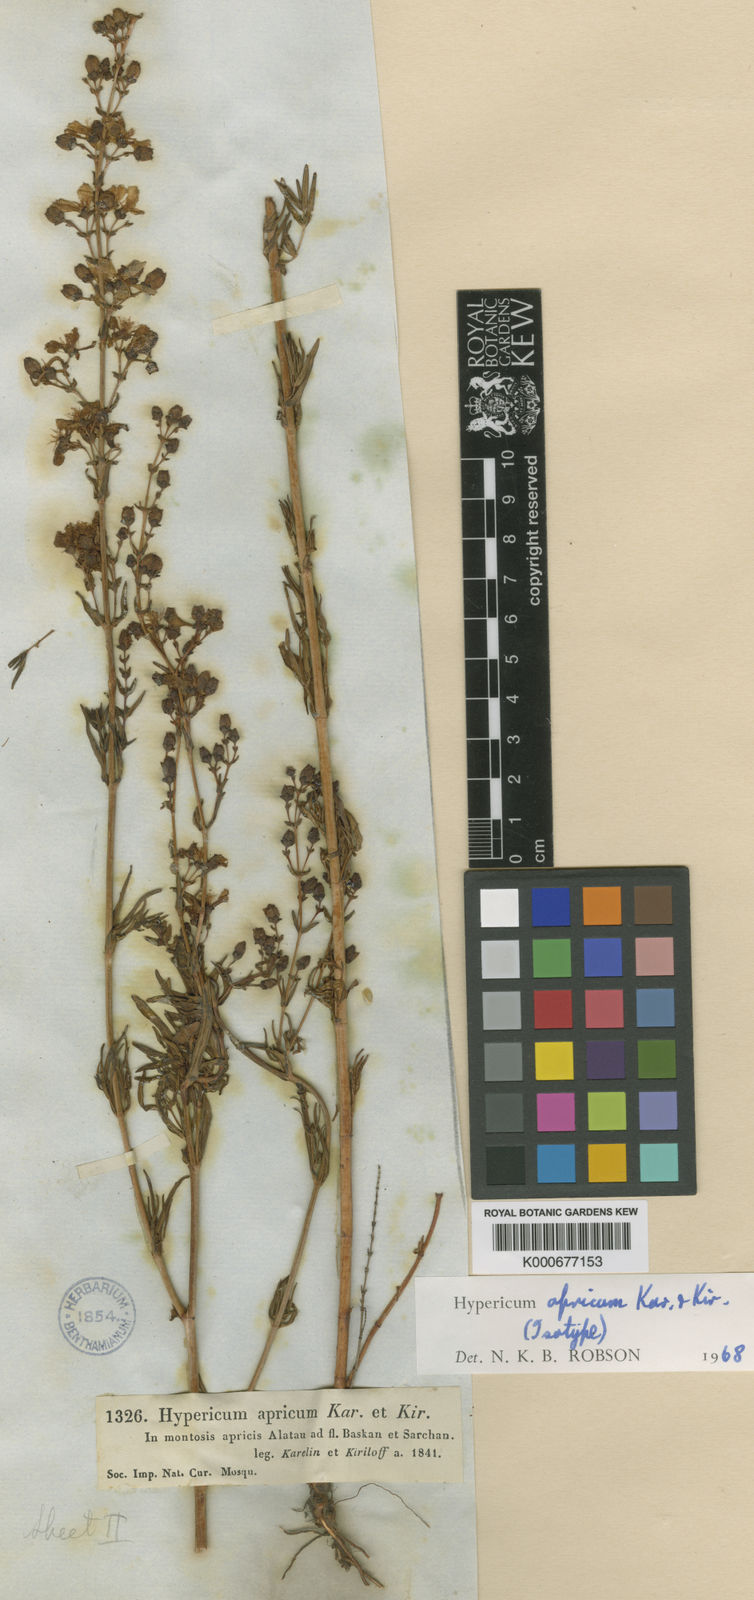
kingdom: Plantae
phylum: Tracheophyta
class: Magnoliopsida
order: Malpighiales
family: Hypericaceae
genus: Hypericum
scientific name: Hypericum apricum
